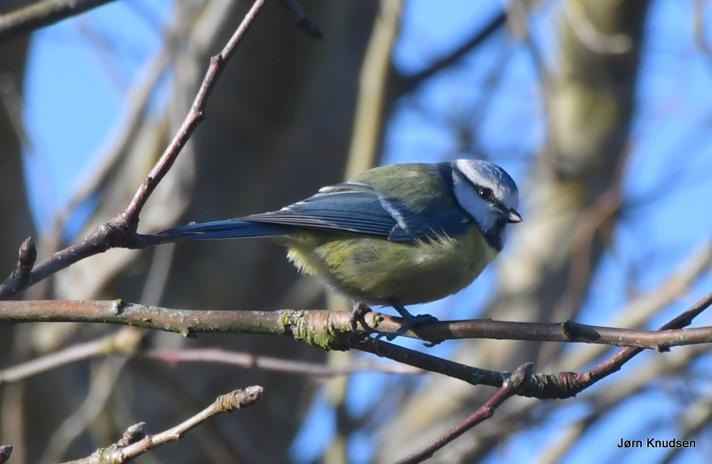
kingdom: Animalia
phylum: Chordata
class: Aves
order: Passeriformes
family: Paridae
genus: Cyanistes
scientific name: Cyanistes caeruleus
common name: Blåmejse
